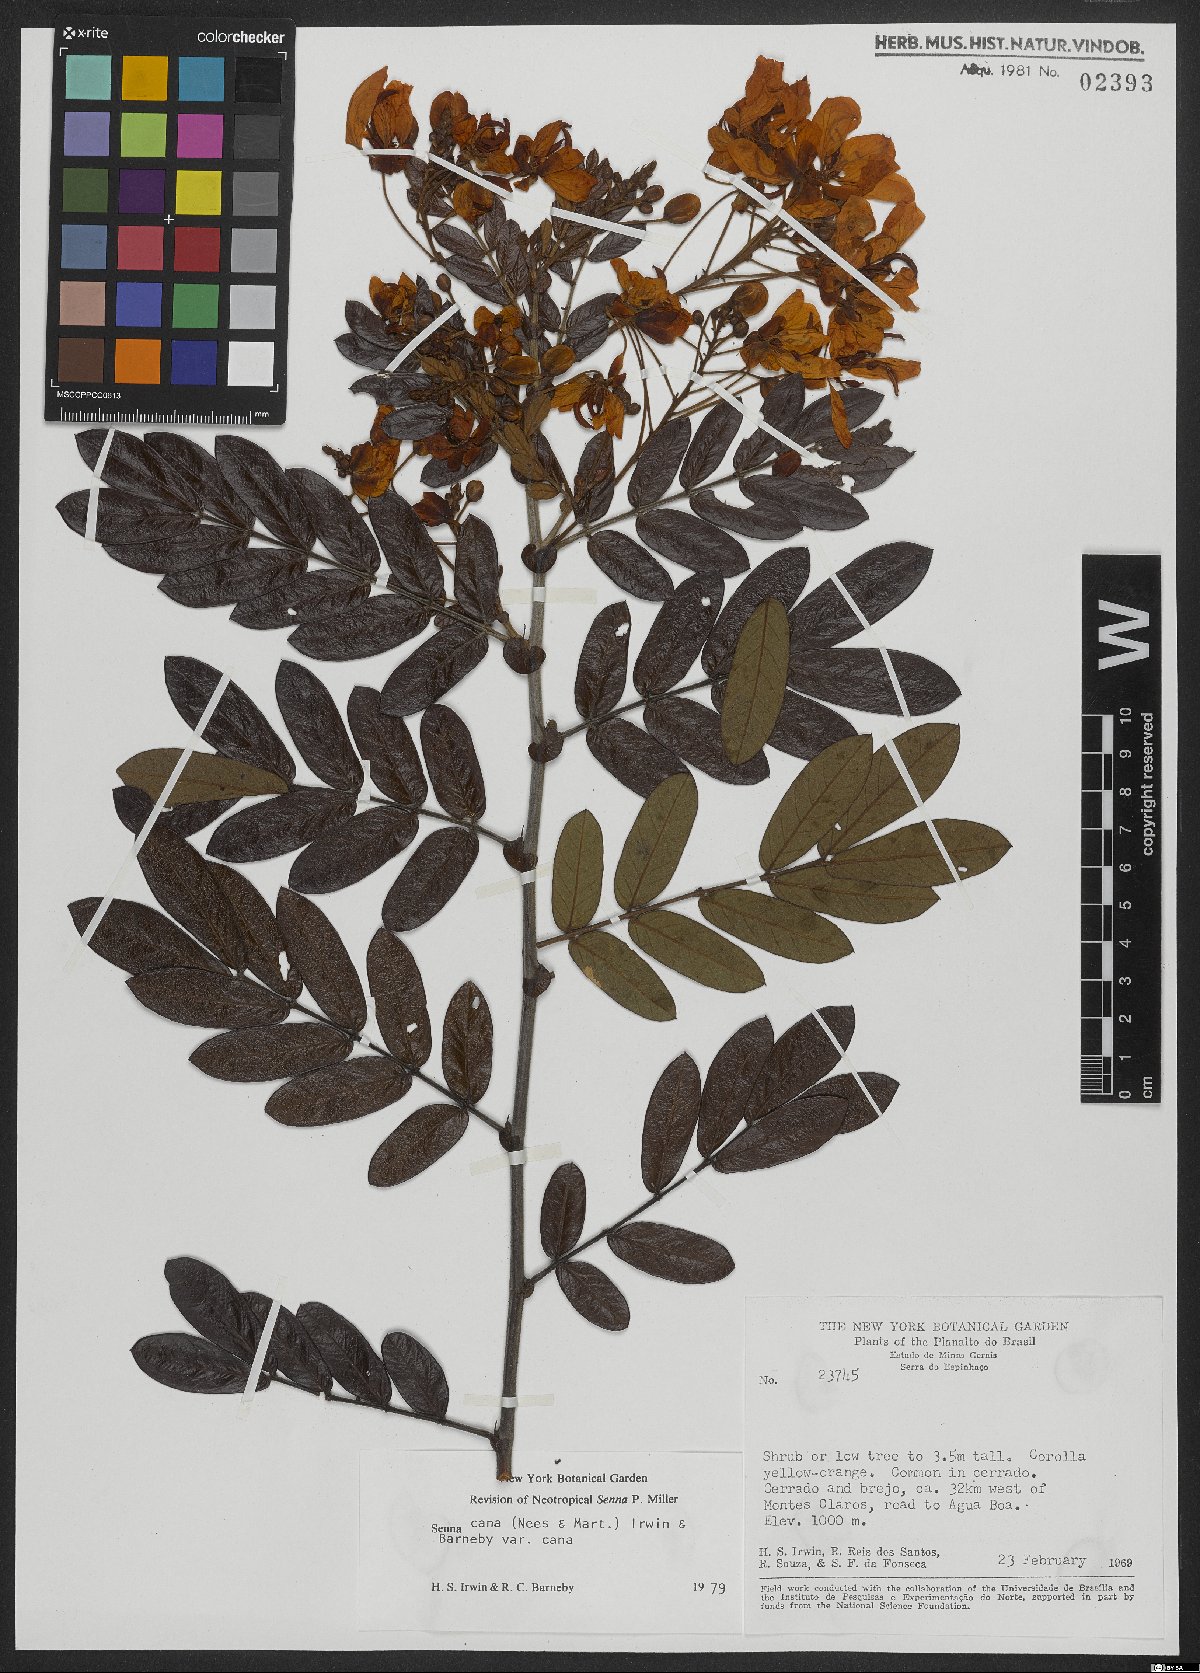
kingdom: Plantae
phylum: Tracheophyta
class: Magnoliopsida
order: Fabales
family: Fabaceae
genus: Senna
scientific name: Senna cana
